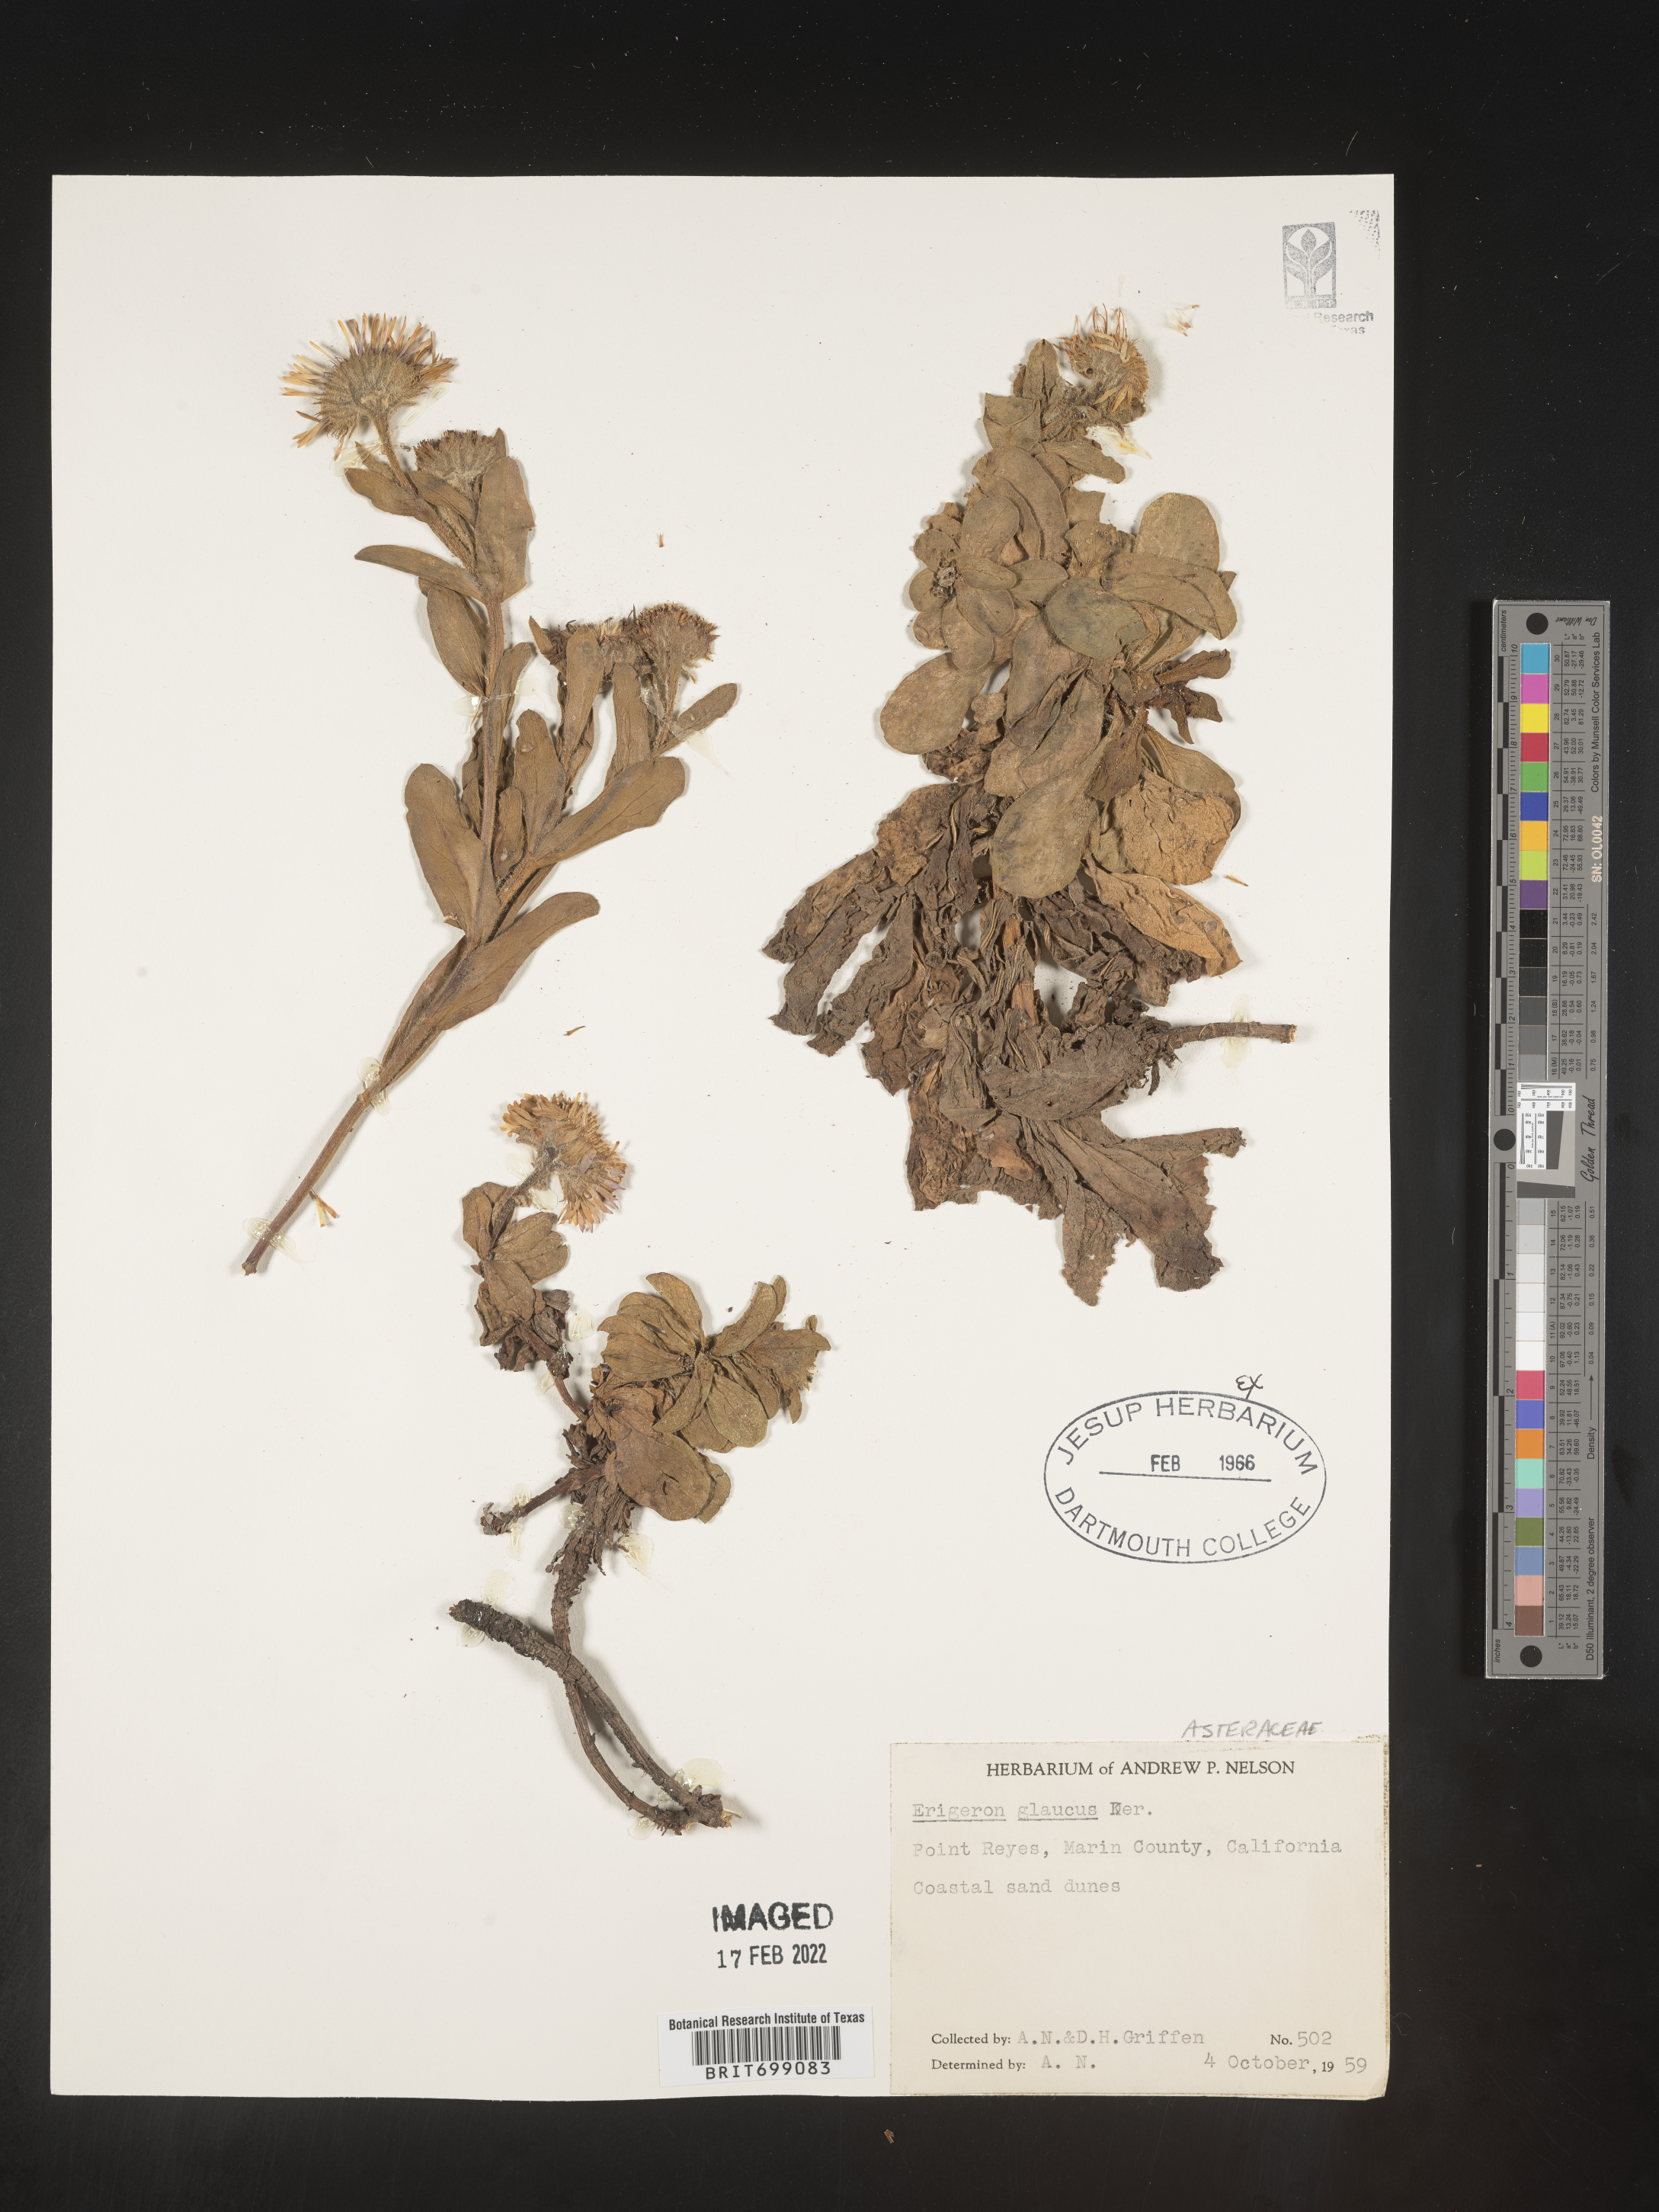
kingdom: Plantae
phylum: Tracheophyta
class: Magnoliopsida
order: Asterales
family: Asteraceae
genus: Erigeron
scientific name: Erigeron glaucus
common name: Seaside daisy
